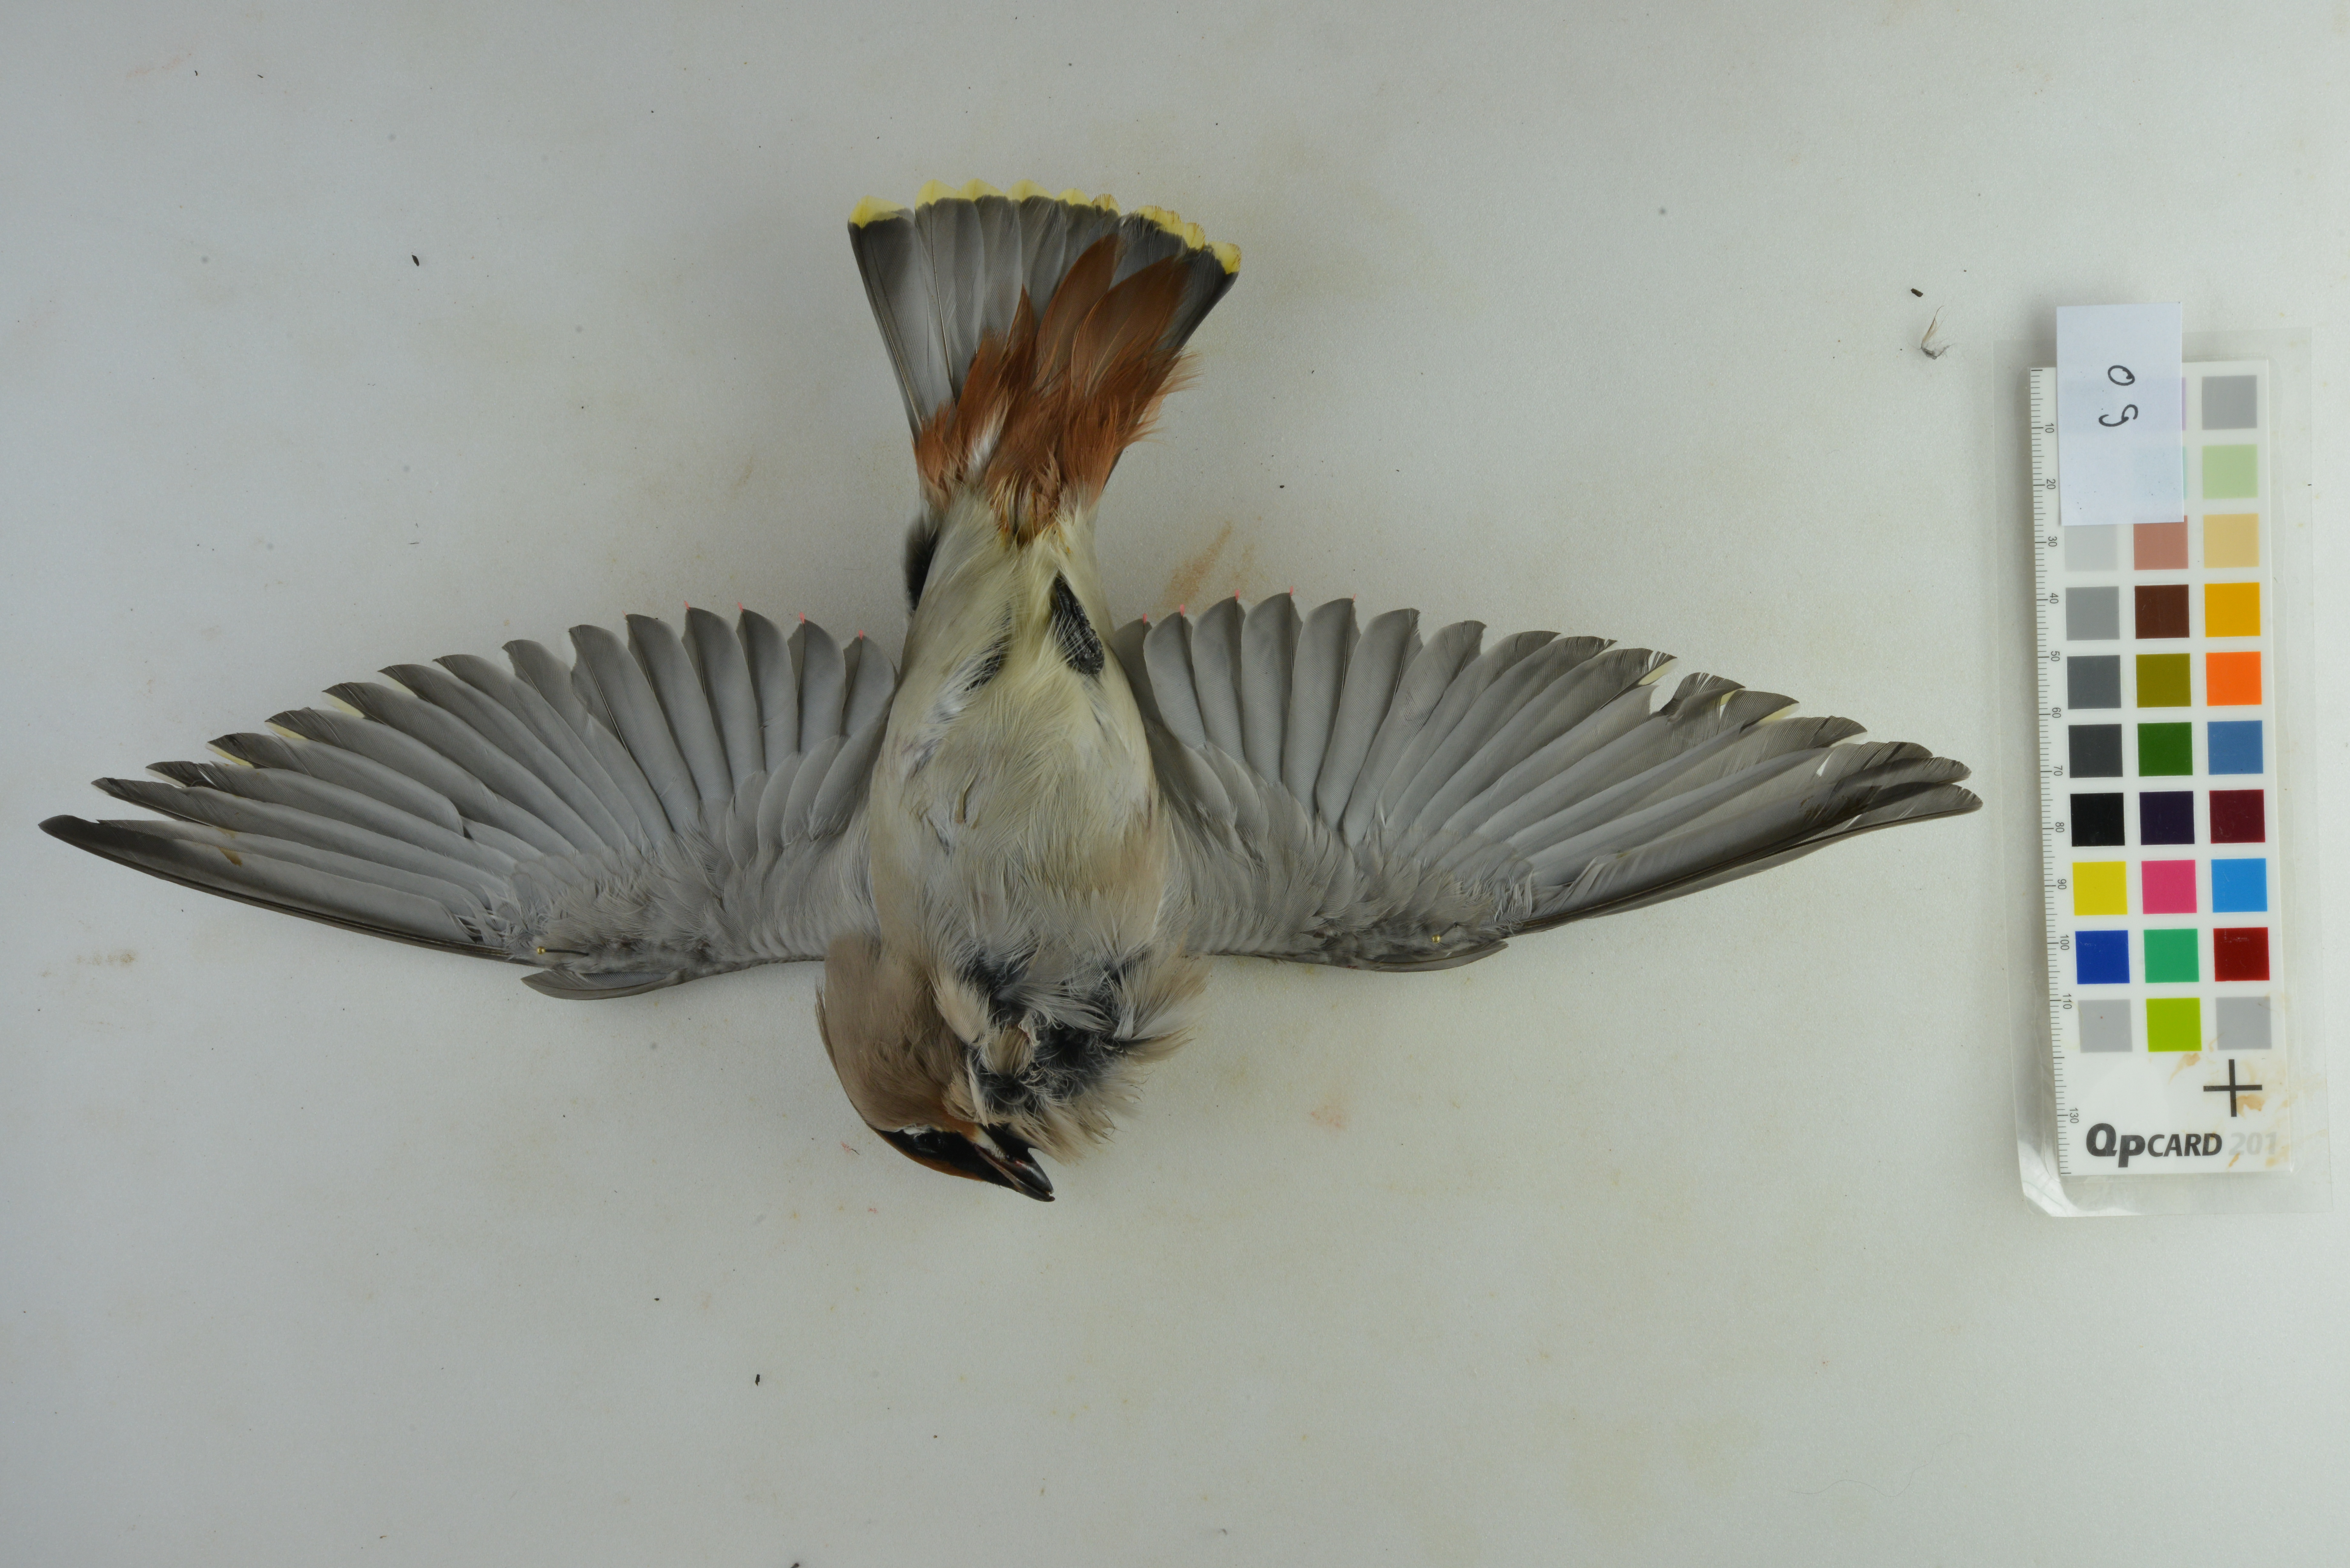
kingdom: Animalia
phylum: Chordata
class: Aves
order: Passeriformes
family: Bombycillidae
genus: Bombycilla
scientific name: Bombycilla garrulus
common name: Bohemian waxwing
